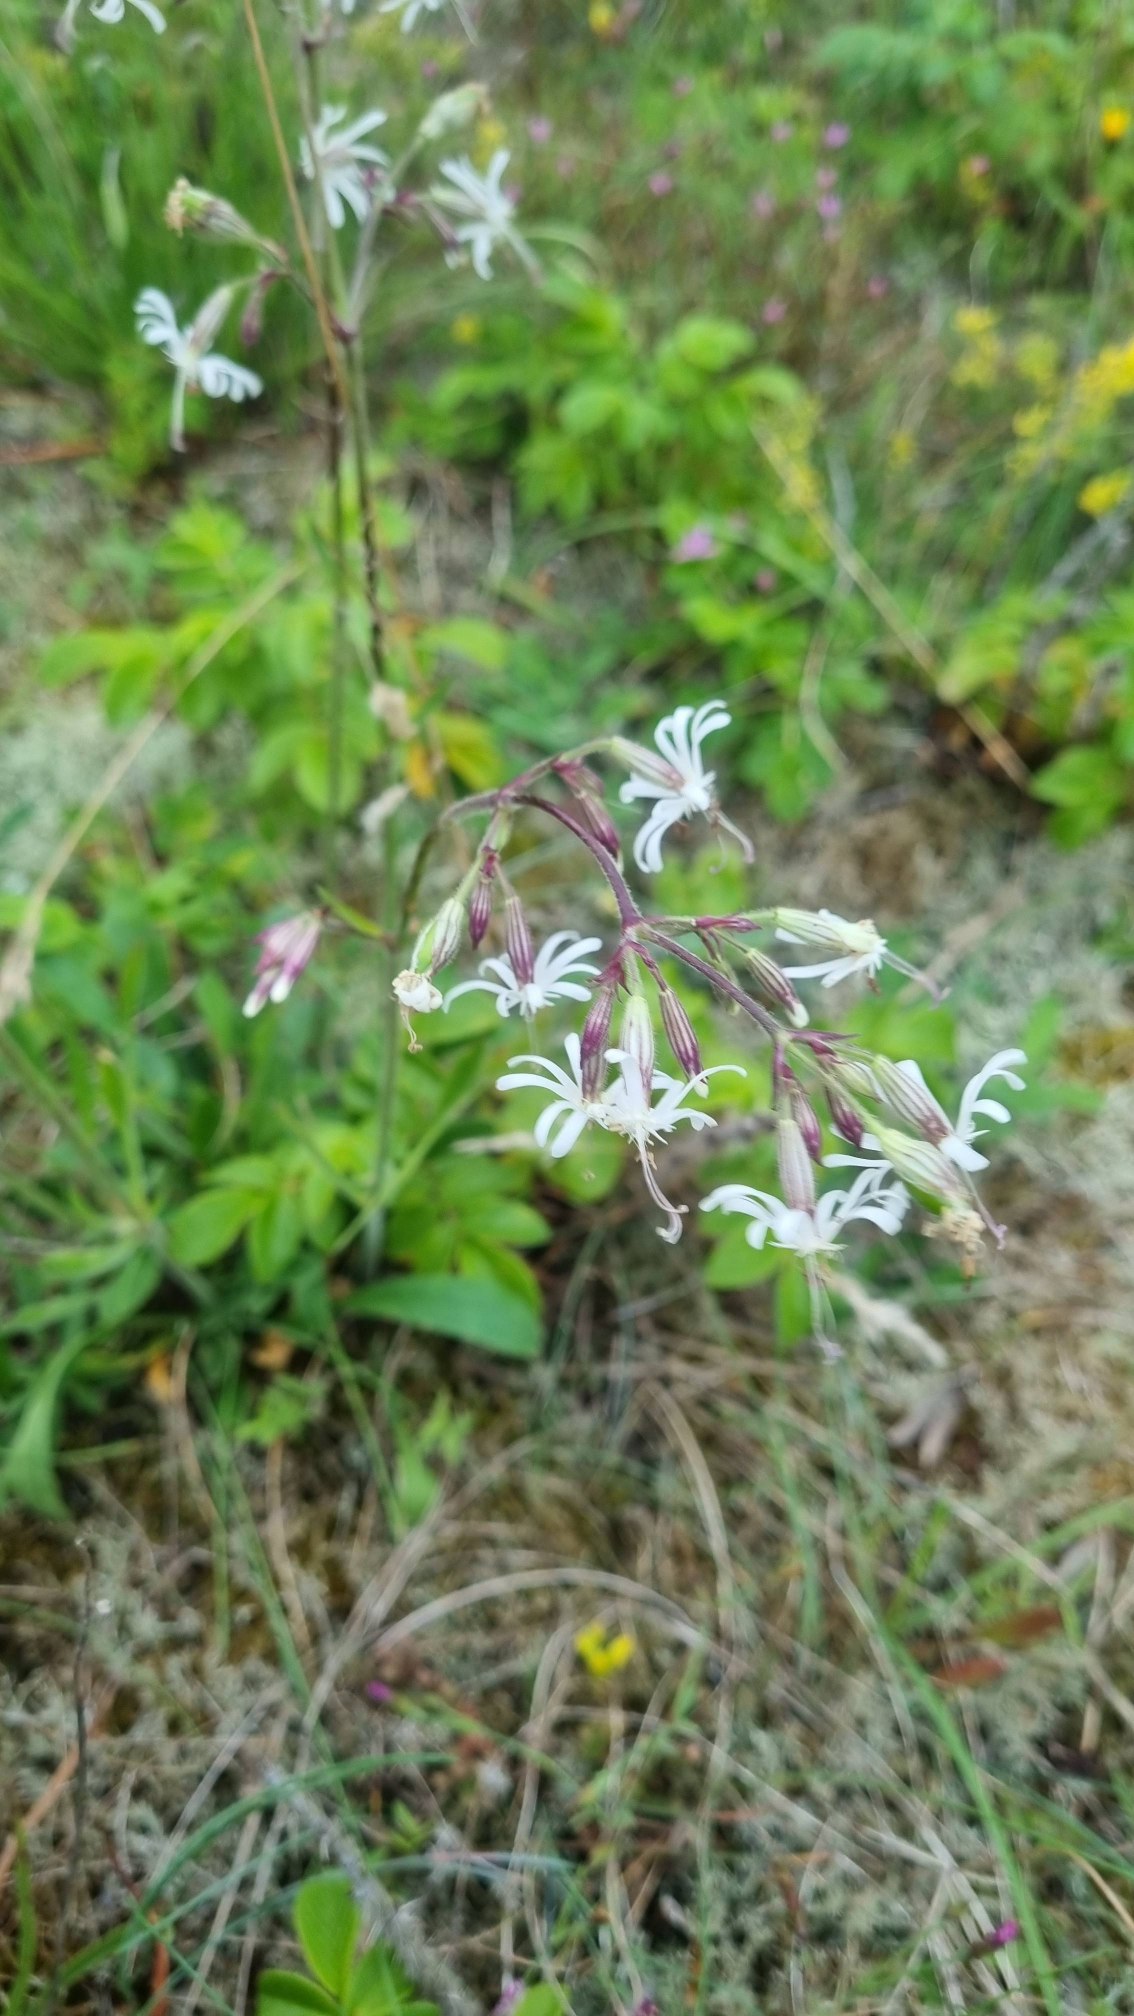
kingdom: Plantae
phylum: Tracheophyta
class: Magnoliopsida
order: Caryophyllales
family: Caryophyllaceae
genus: Silene
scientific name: Silene nutans
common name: Nikkende limurt
